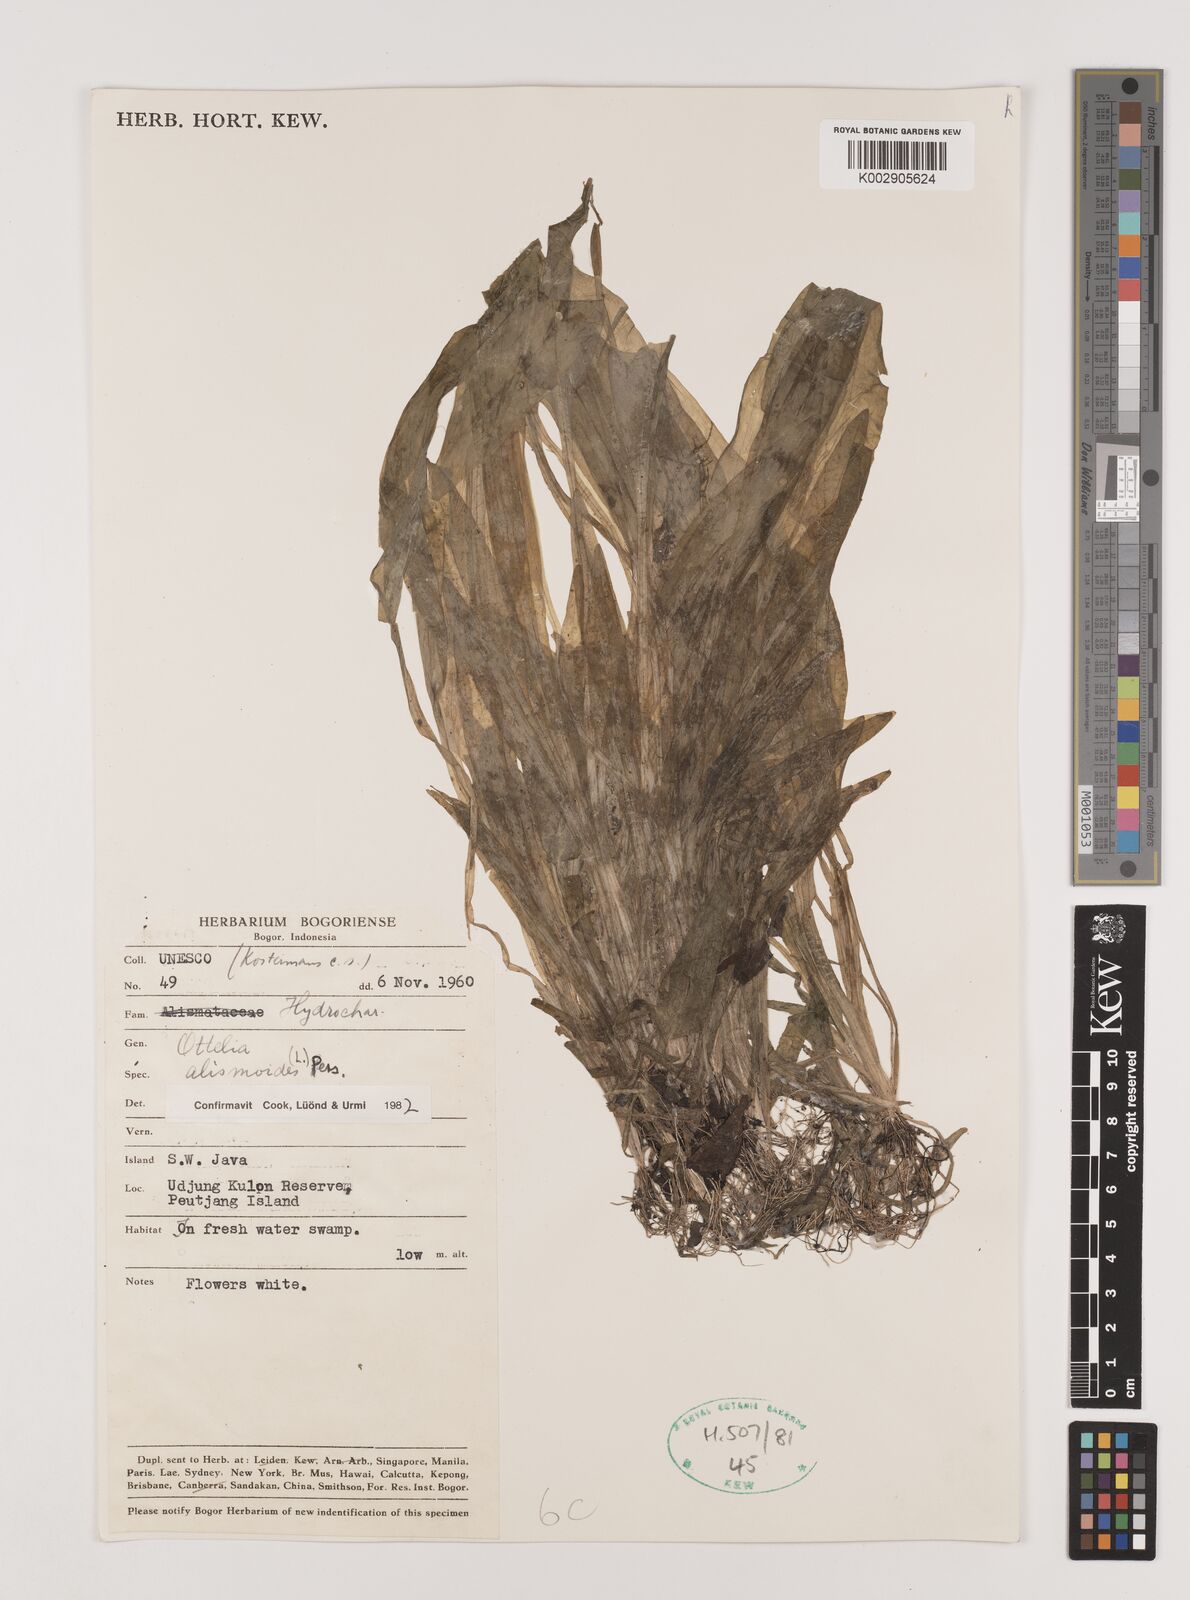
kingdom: Plantae
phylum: Tracheophyta
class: Liliopsida
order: Alismatales
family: Hydrocharitaceae
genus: Ottelia
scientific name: Ottelia alismoides
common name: Duck-lettuce
